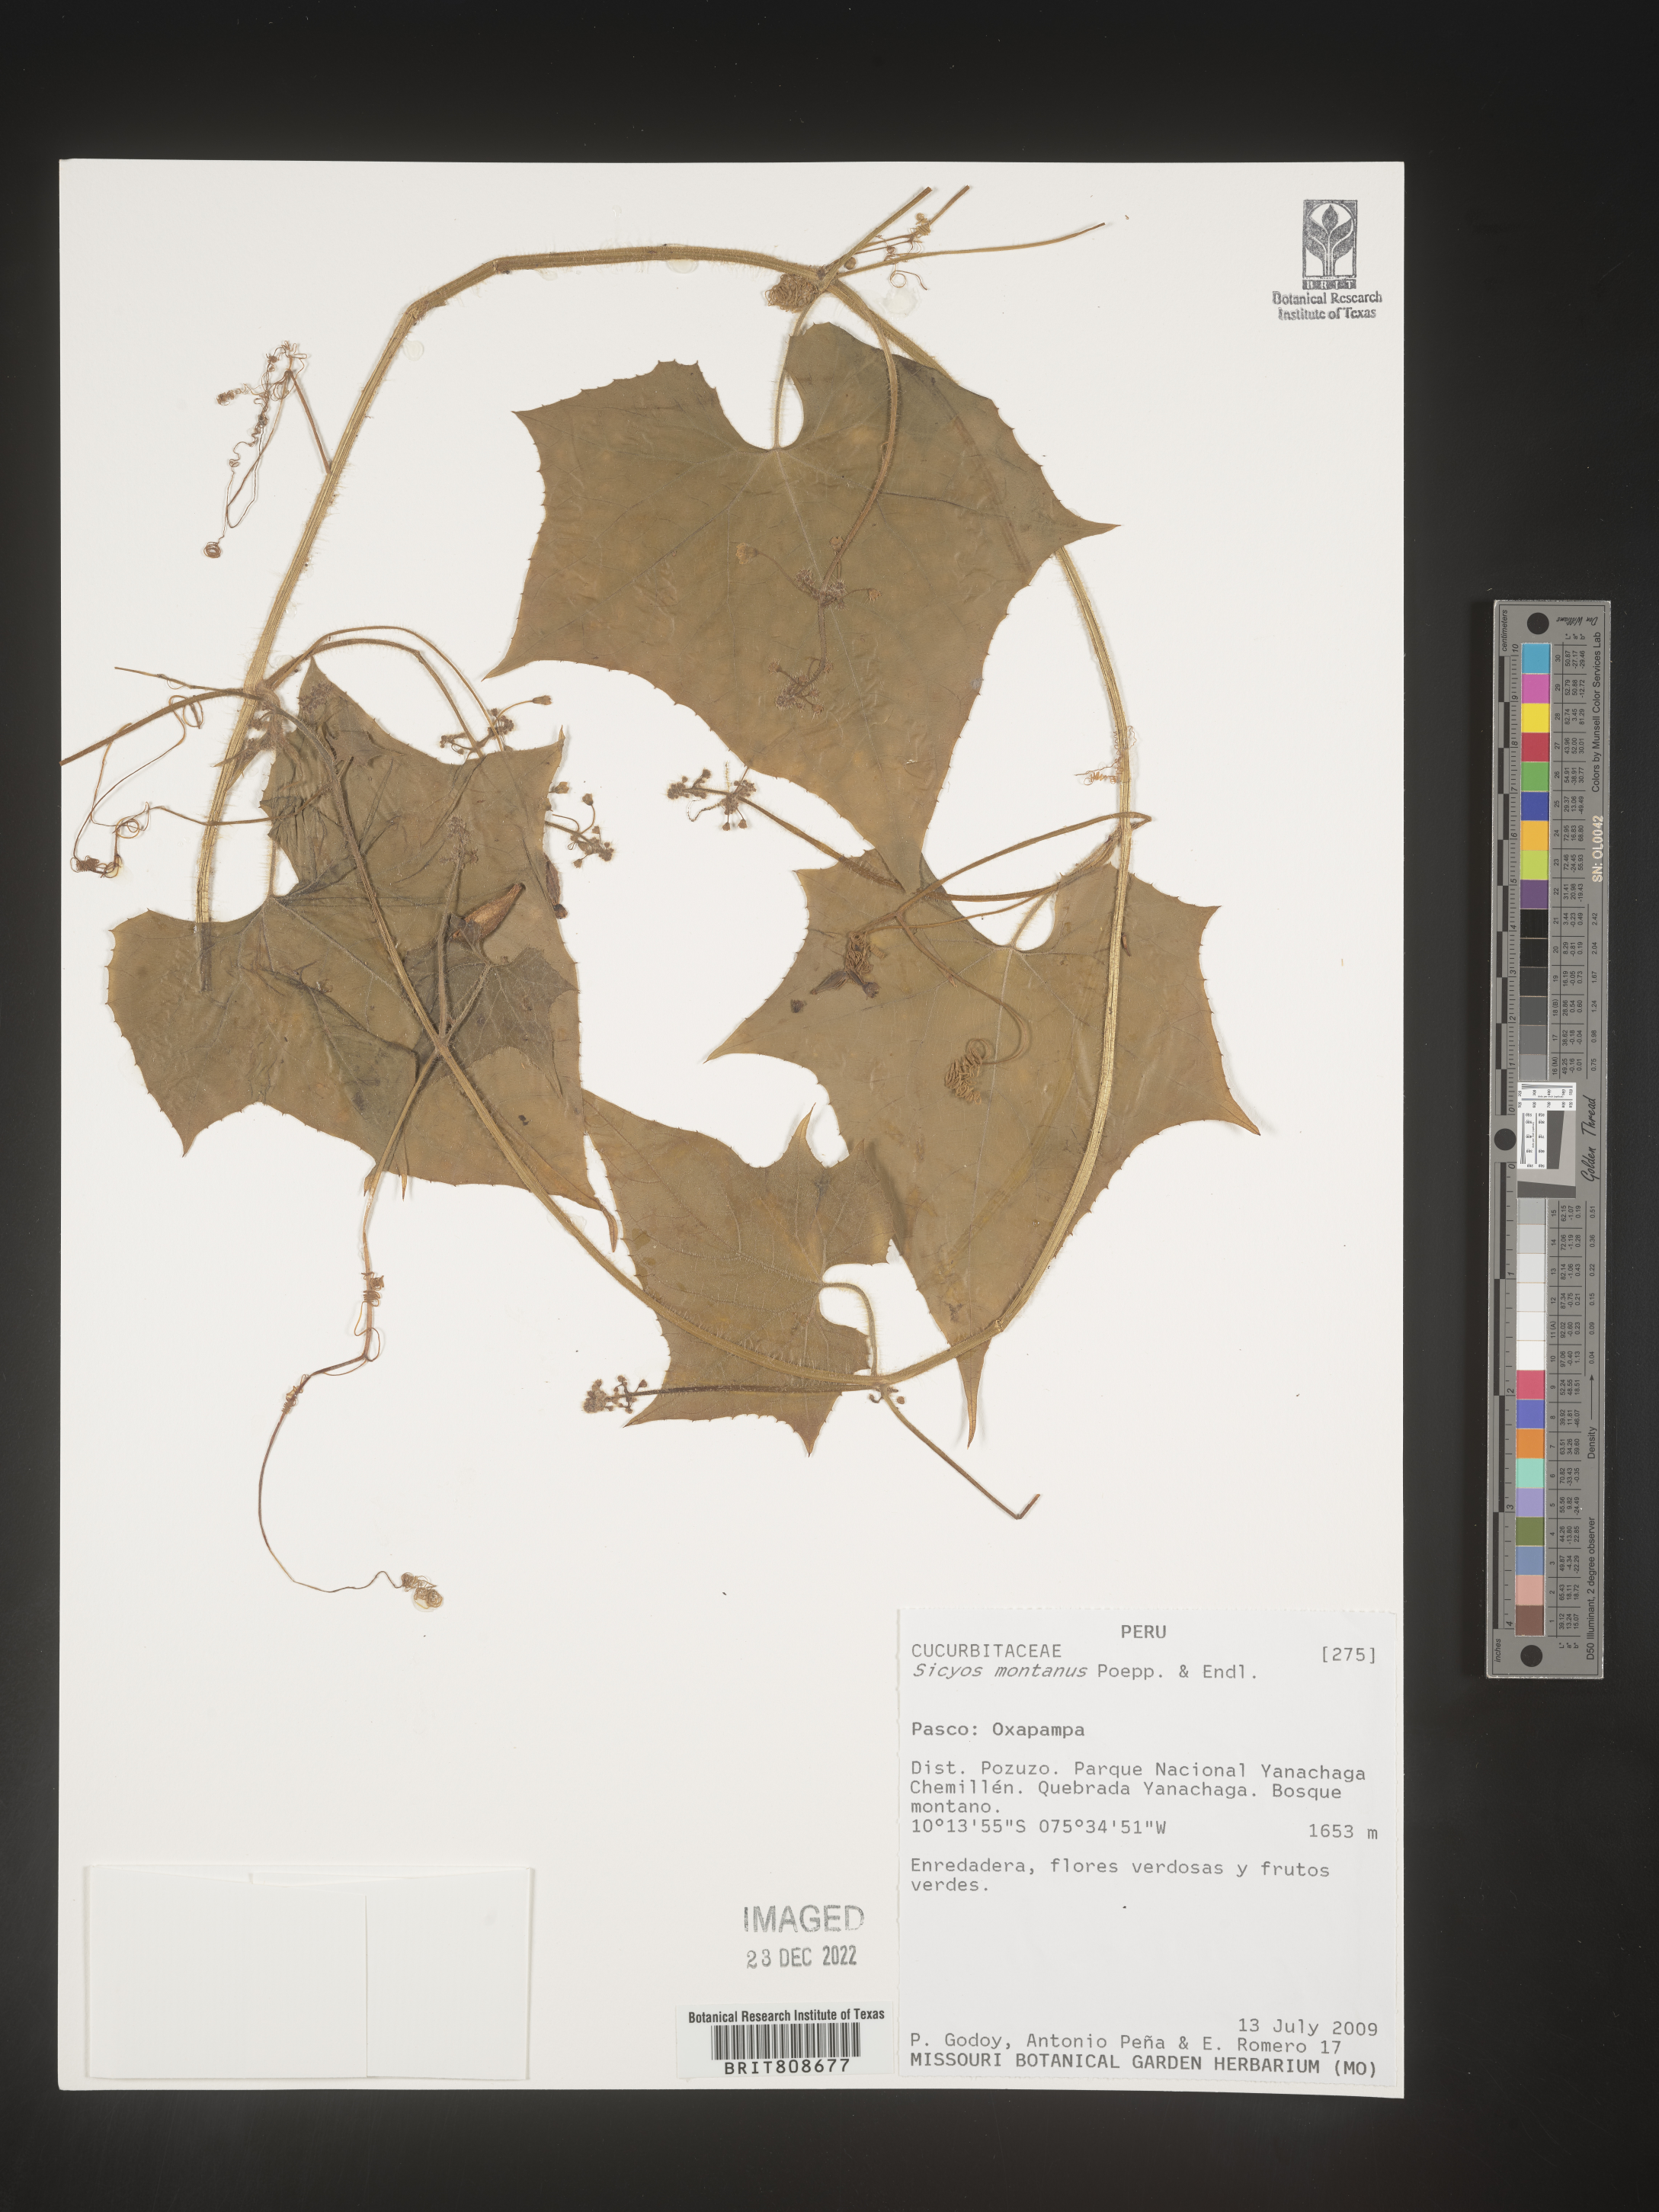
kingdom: Plantae
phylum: Tracheophyta
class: Magnoliopsida
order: Cucurbitales
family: Cucurbitaceae
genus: Sicyos
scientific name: Sicyos
